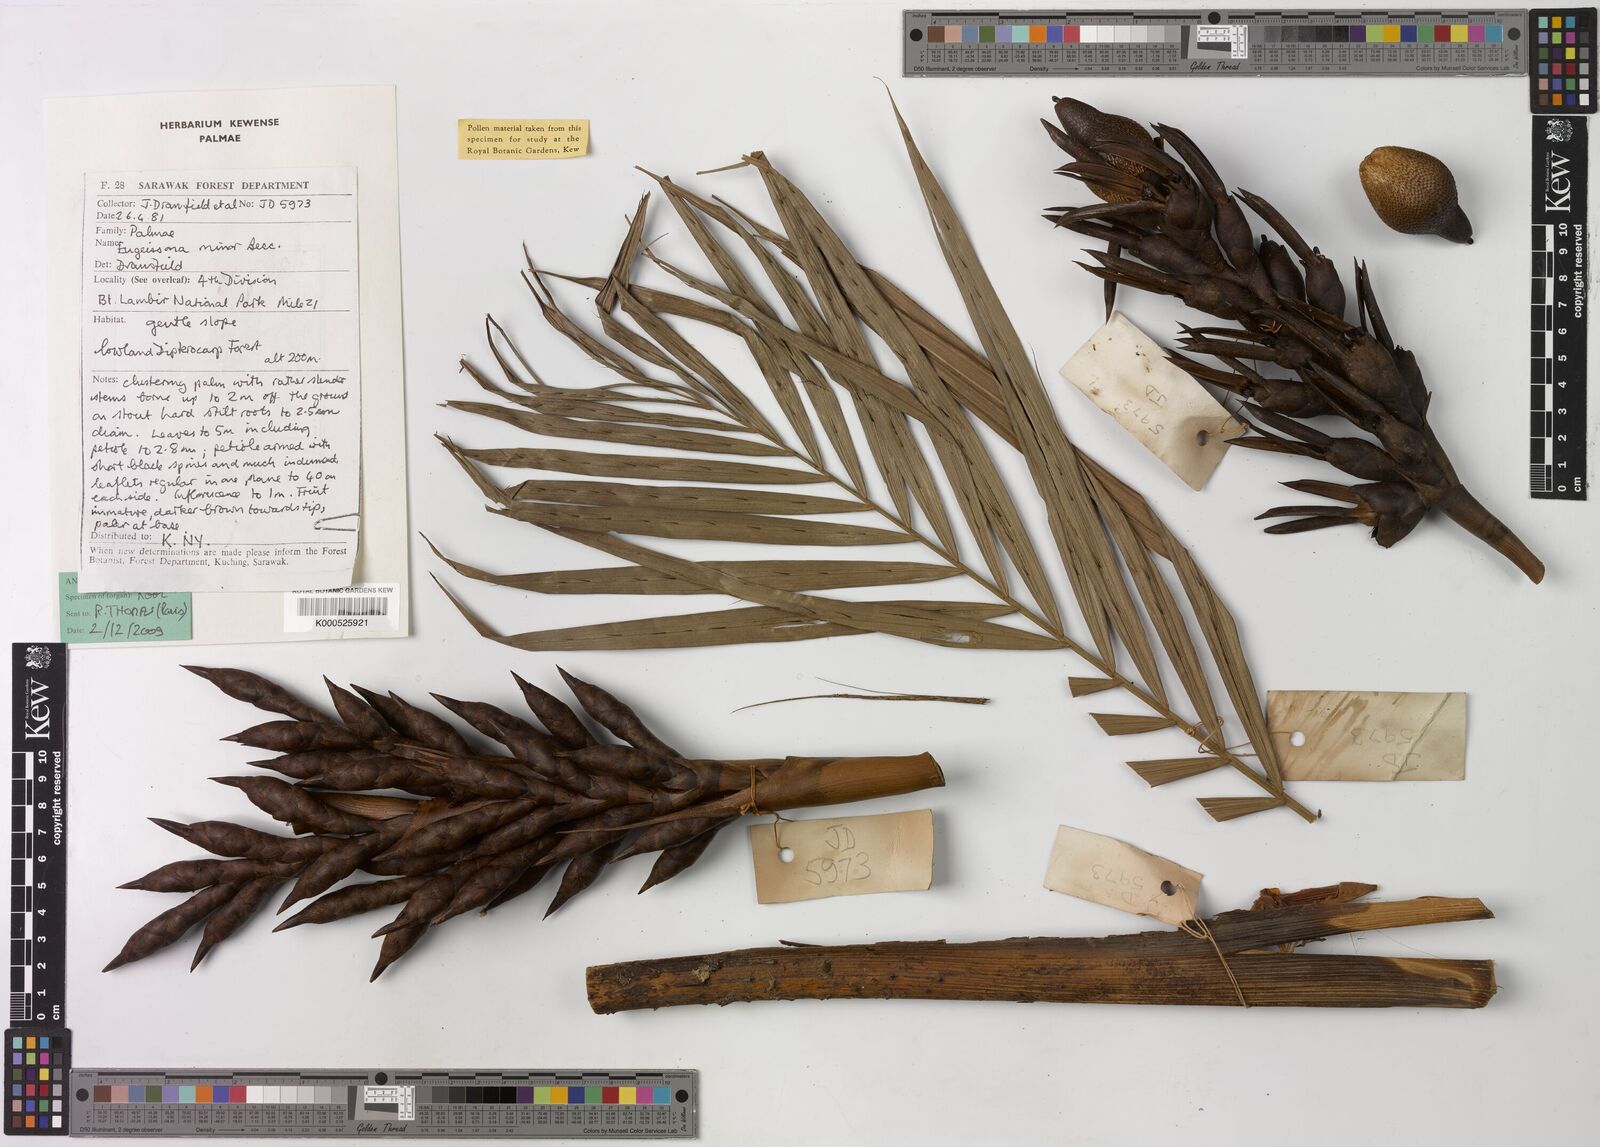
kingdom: Plantae
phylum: Tracheophyta
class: Liliopsida
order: Arecales
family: Arecaceae
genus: Eugeissona
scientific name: Eugeissona minor
